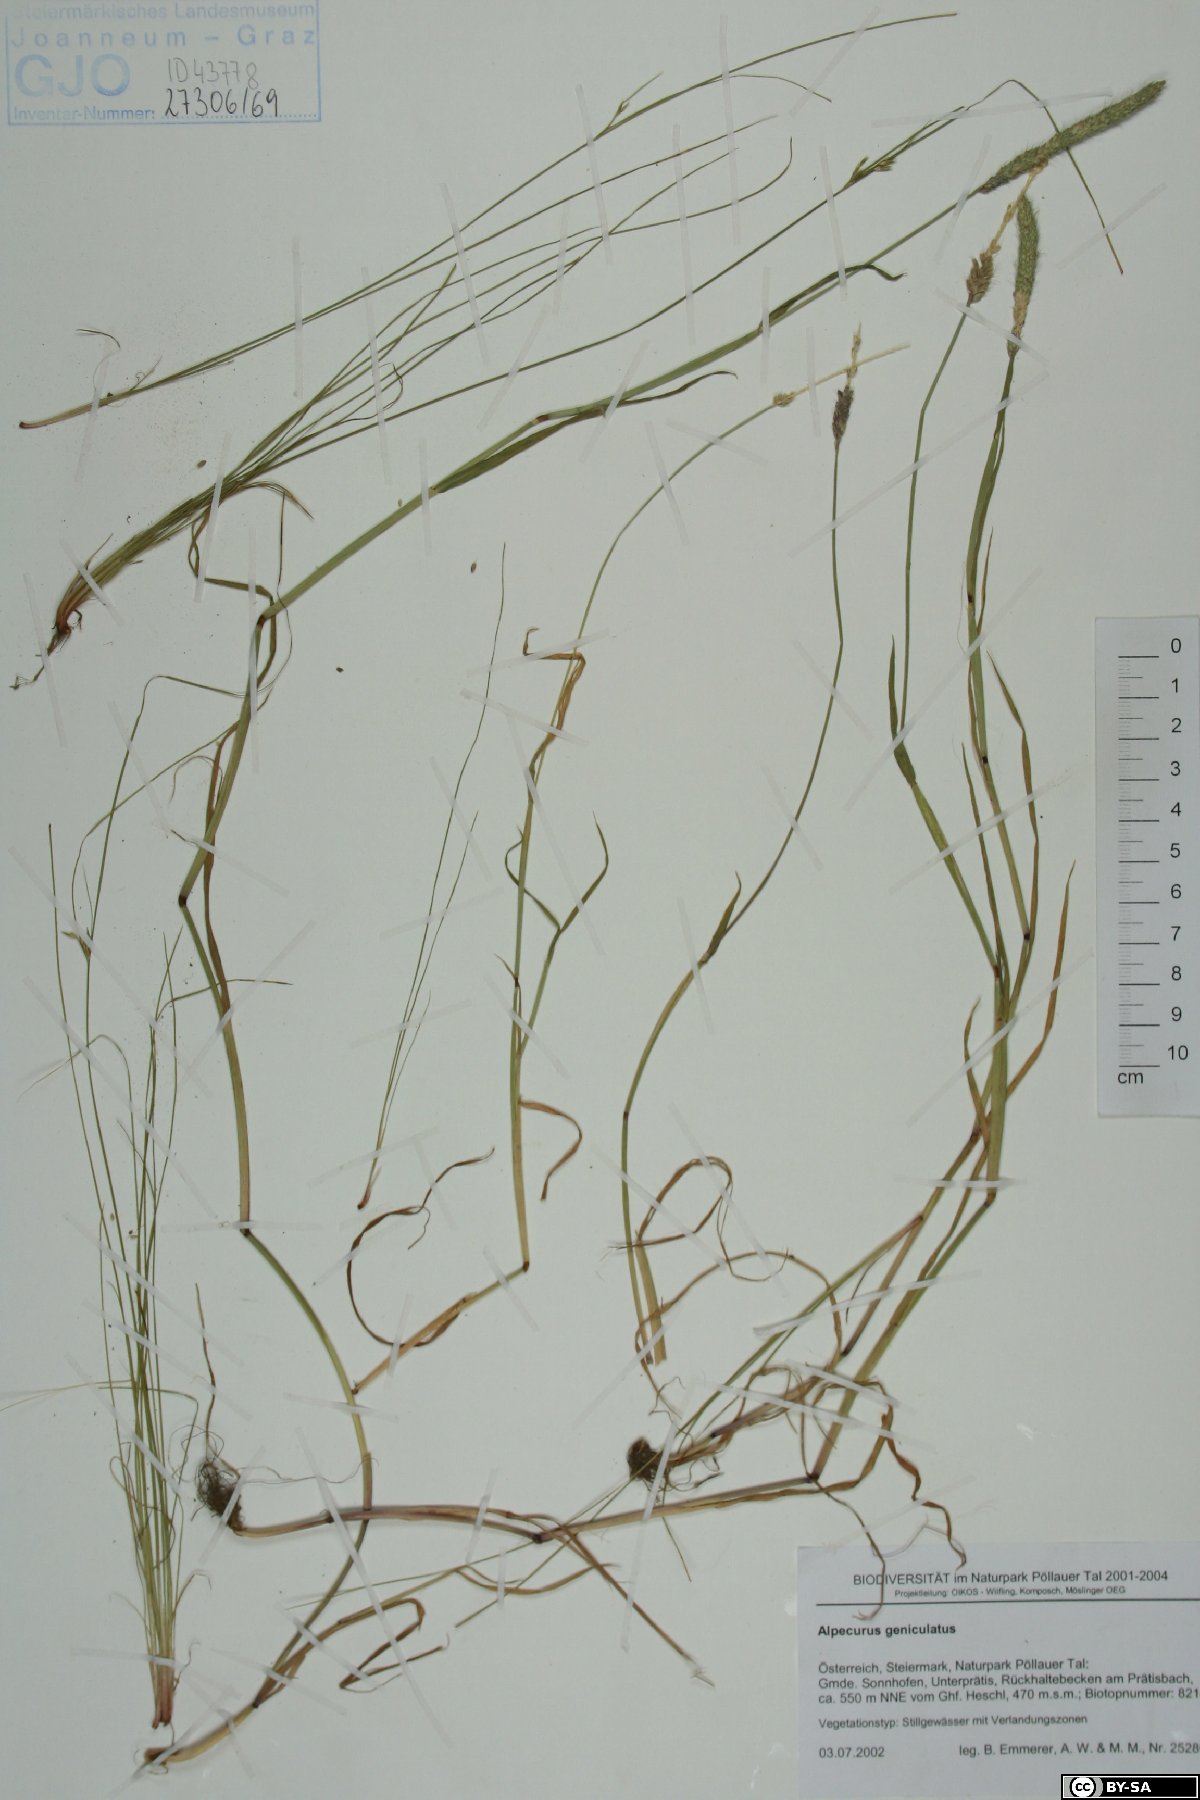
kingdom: Plantae
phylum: Tracheophyta
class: Liliopsida
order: Poales
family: Poaceae
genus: Alopecurus
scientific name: Alopecurus geniculatus
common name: Water foxtail
